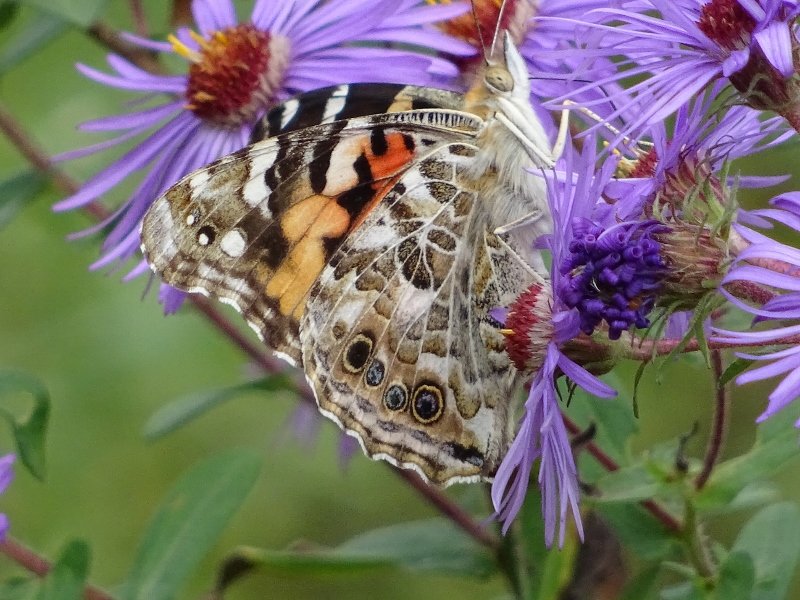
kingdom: Animalia
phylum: Arthropoda
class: Insecta
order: Lepidoptera
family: Nymphalidae
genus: Vanessa
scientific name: Vanessa cardui
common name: Painted Lady
